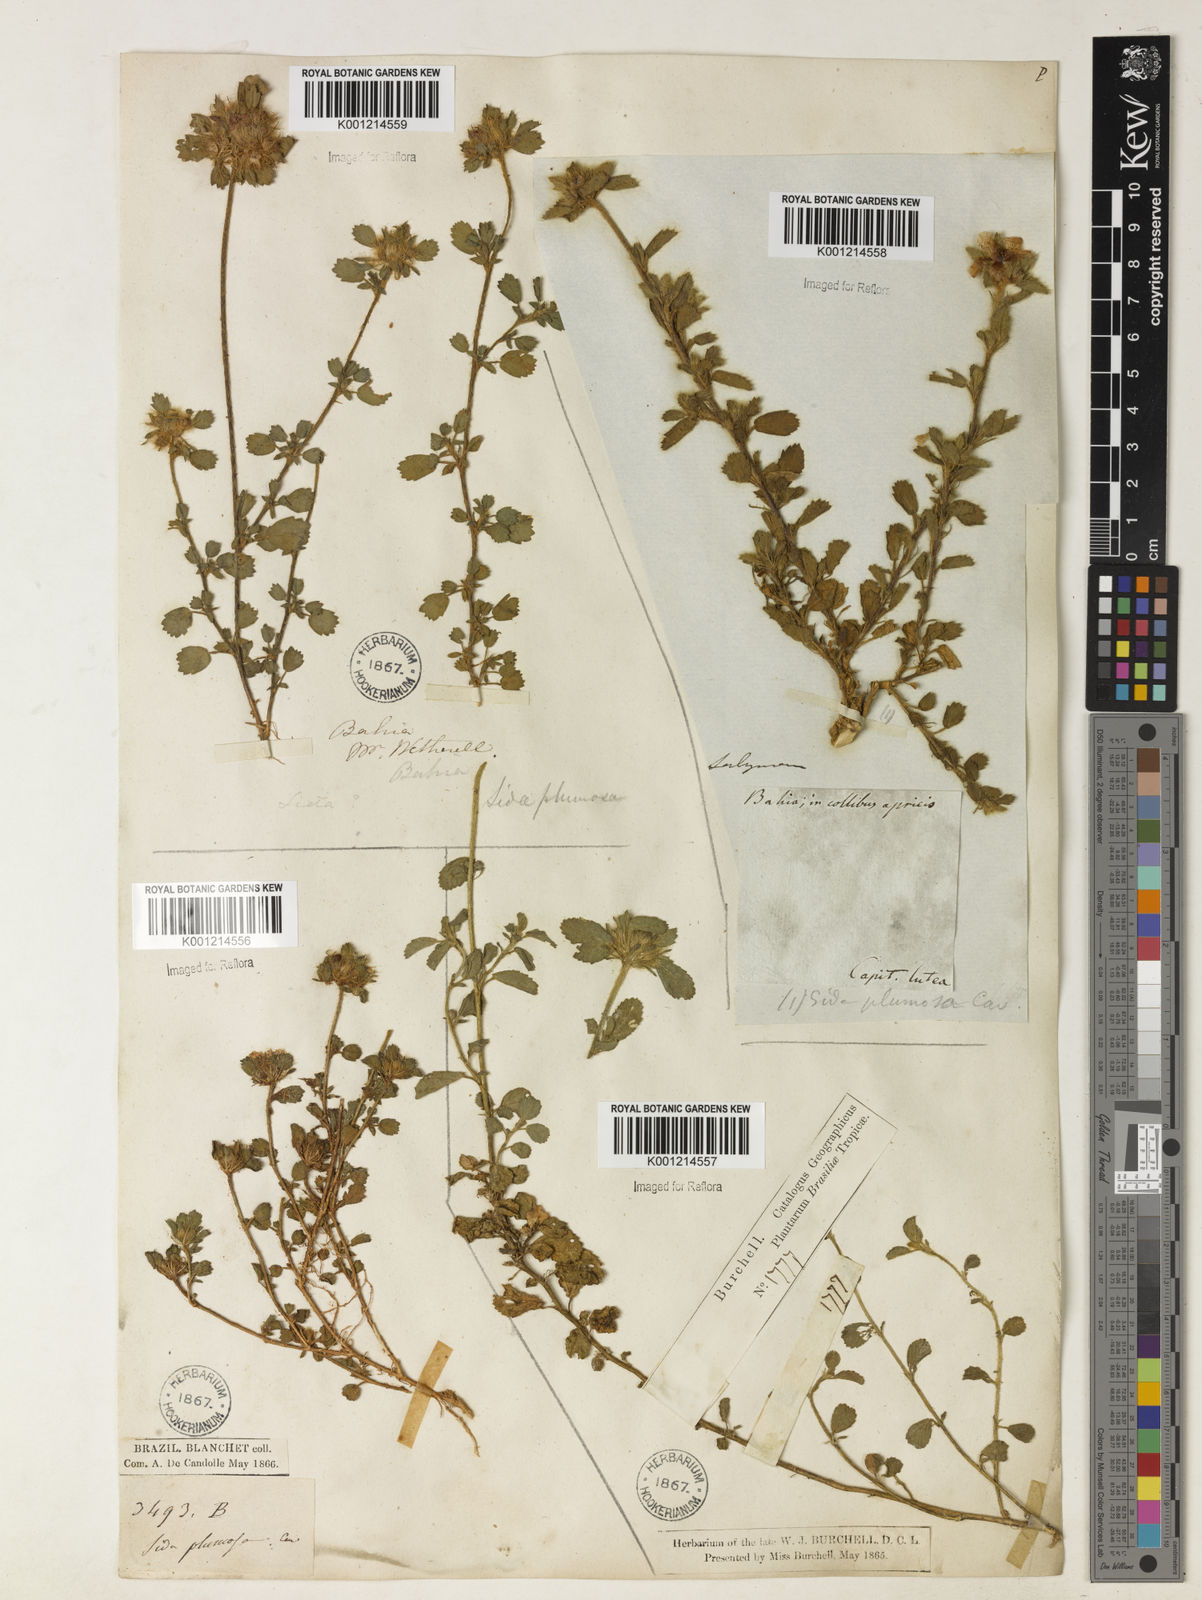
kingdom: Plantae
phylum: Tracheophyta
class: Magnoliopsida
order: Malvales
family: Malvaceae
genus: Sida
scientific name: Sida ciliaris
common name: Bracted fanpetals
